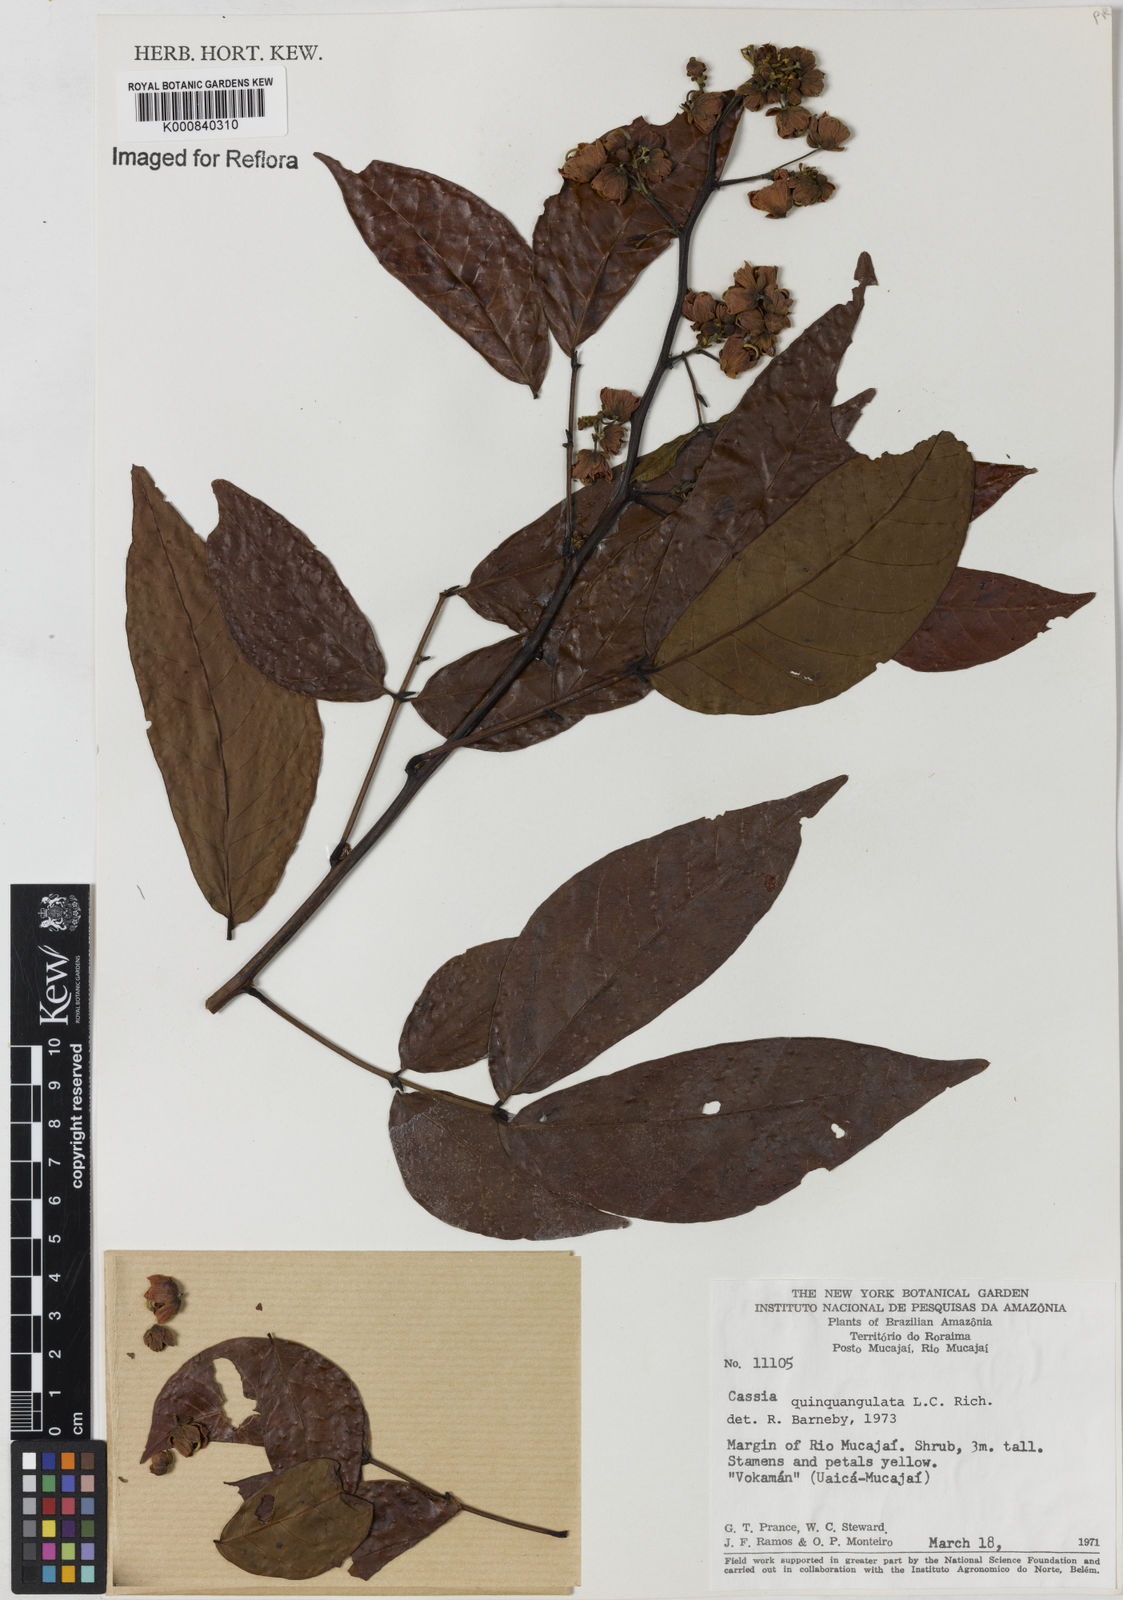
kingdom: Plantae
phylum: Tracheophyta
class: Magnoliopsida
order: Fabales
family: Fabaceae
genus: Senna
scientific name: Senna
